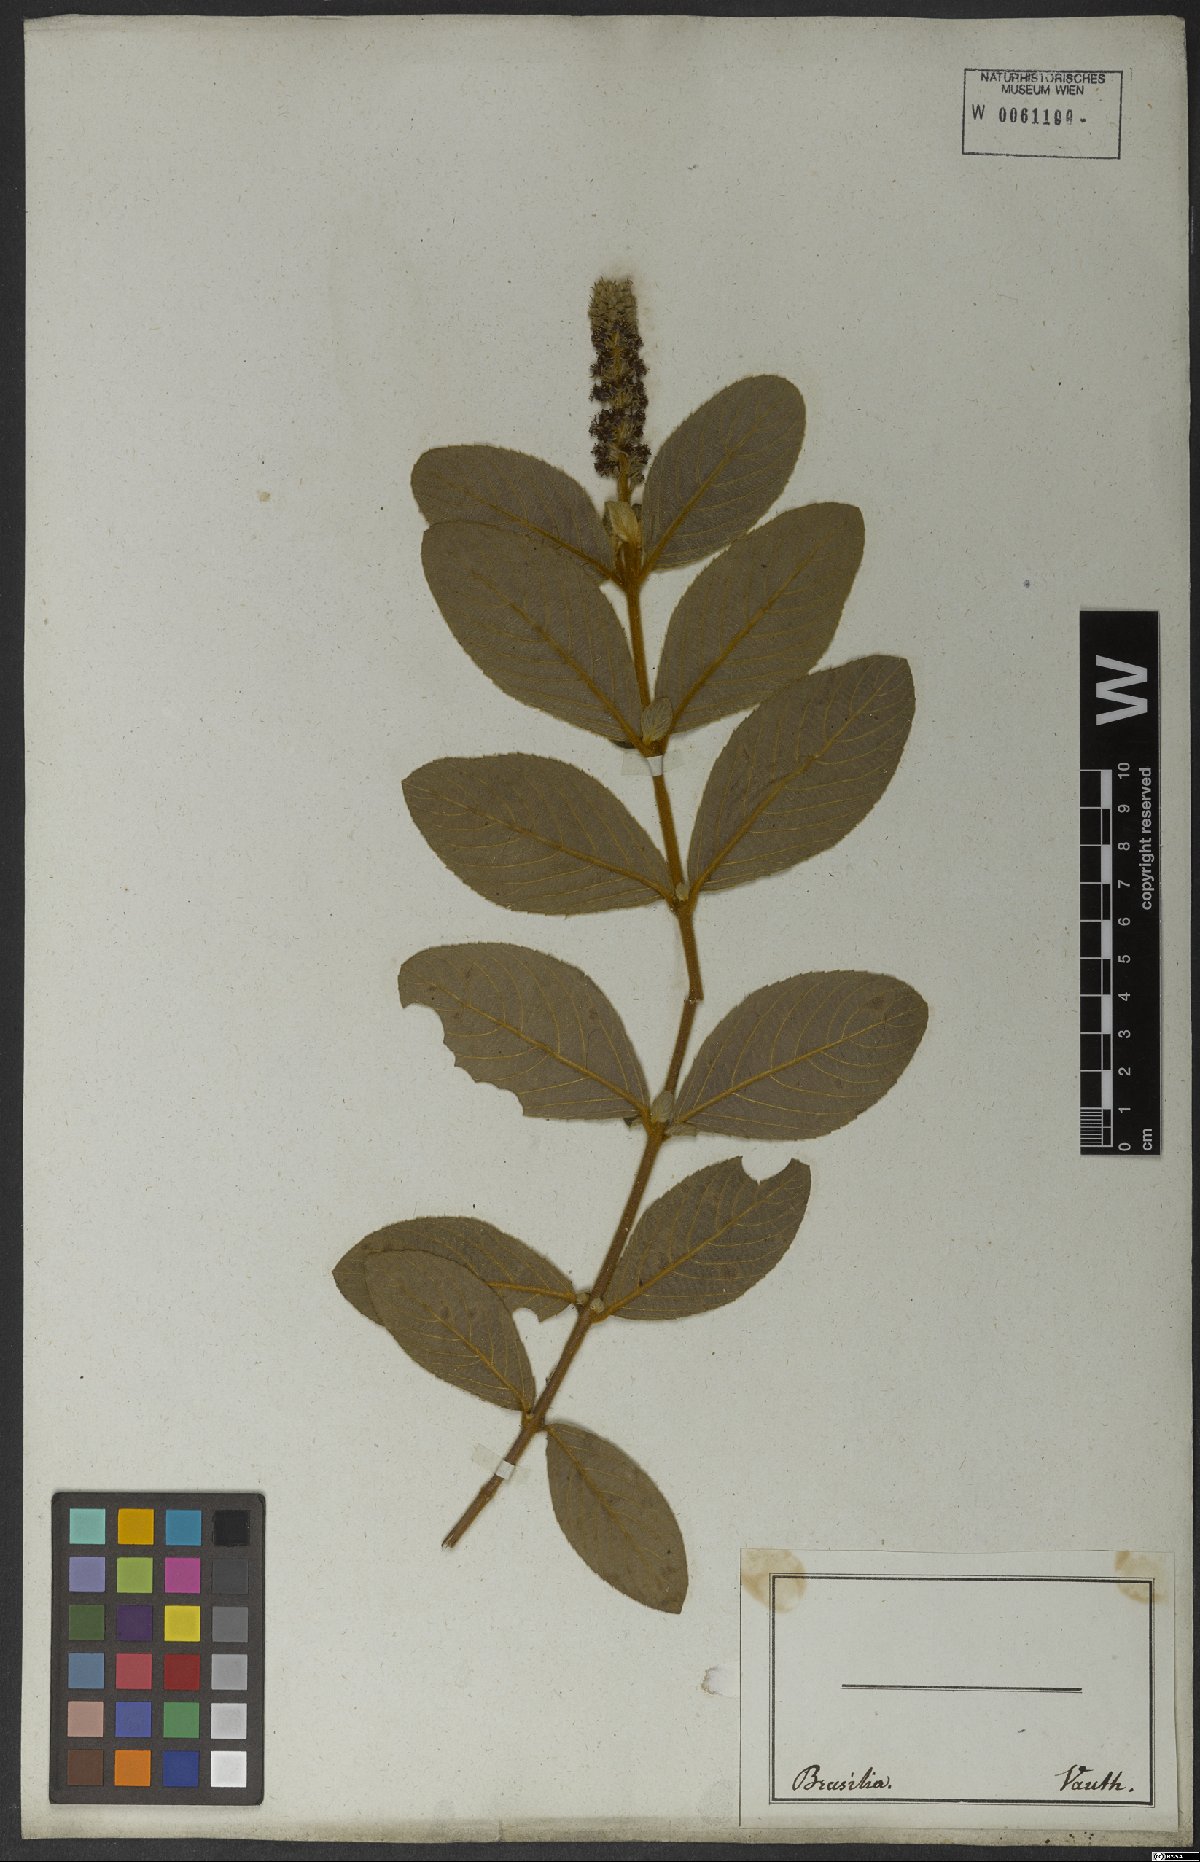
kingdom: Plantae
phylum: Tracheophyta
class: Magnoliopsida
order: Malpighiales
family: Salicaceae
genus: Abatia
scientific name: Abatia americana
